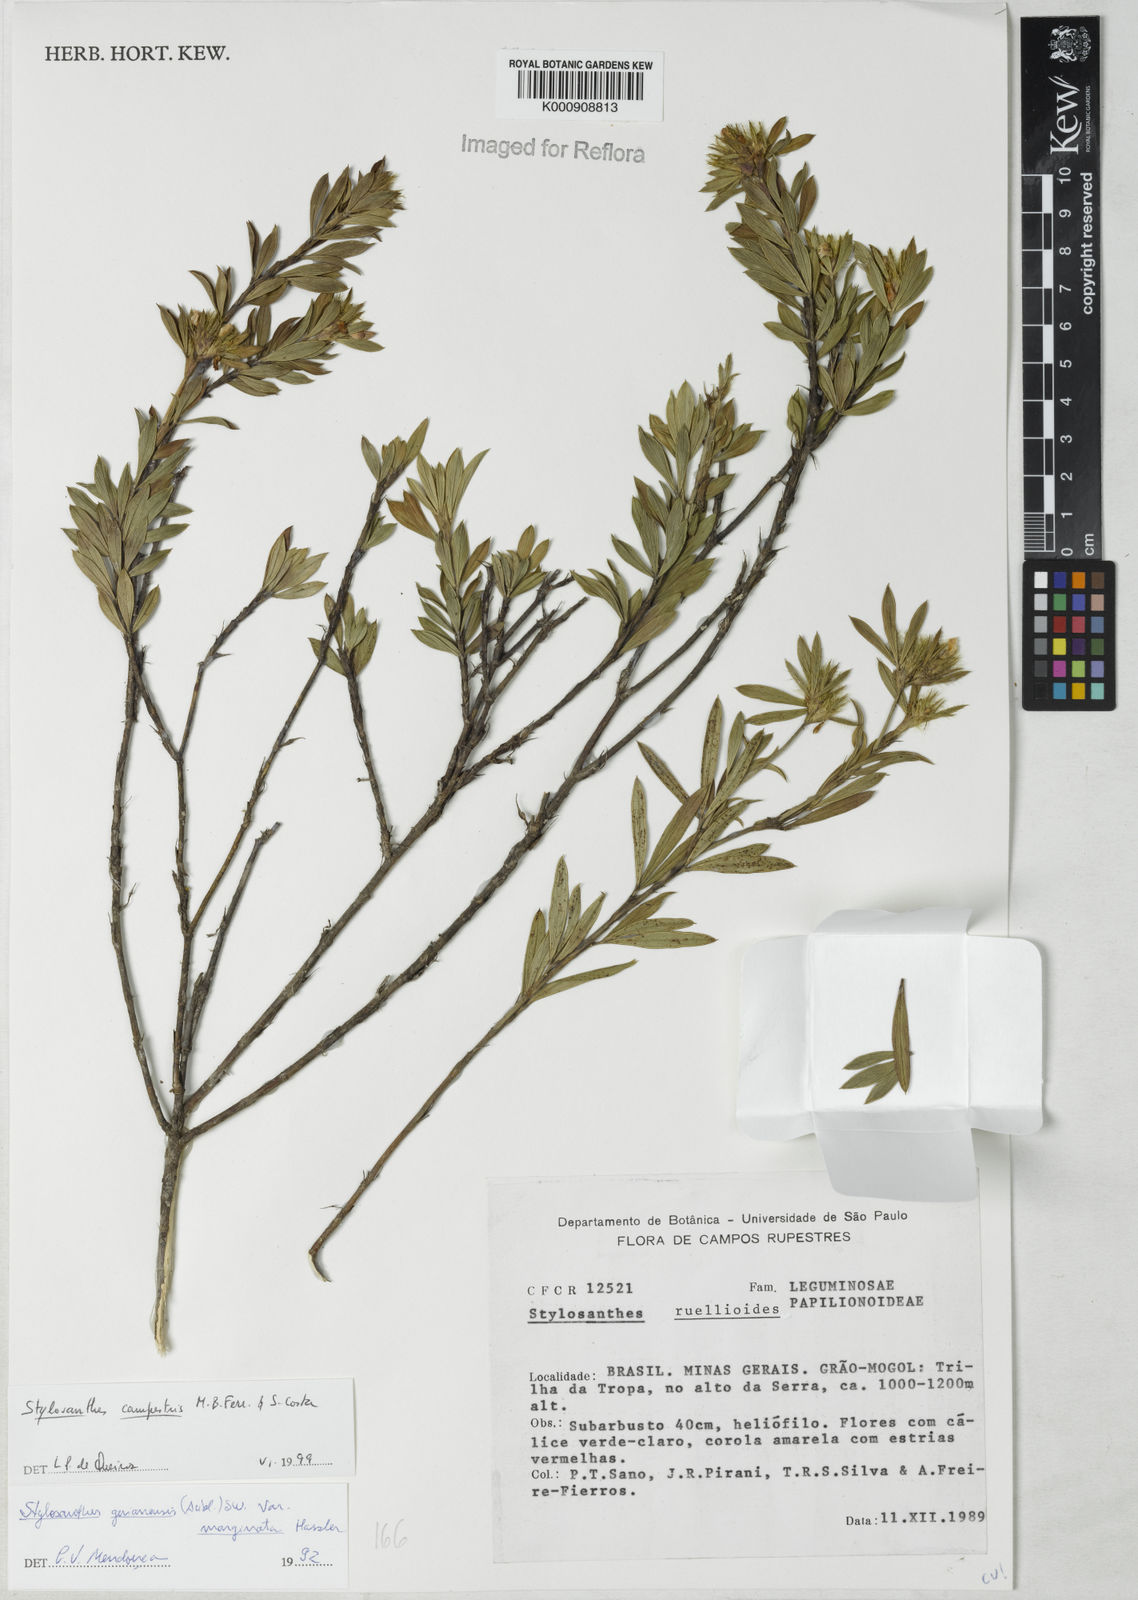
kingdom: Plantae
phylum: Tracheophyta
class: Magnoliopsida
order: Fabales
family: Fabaceae
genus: Stylosanthes
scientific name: Stylosanthes campestris
